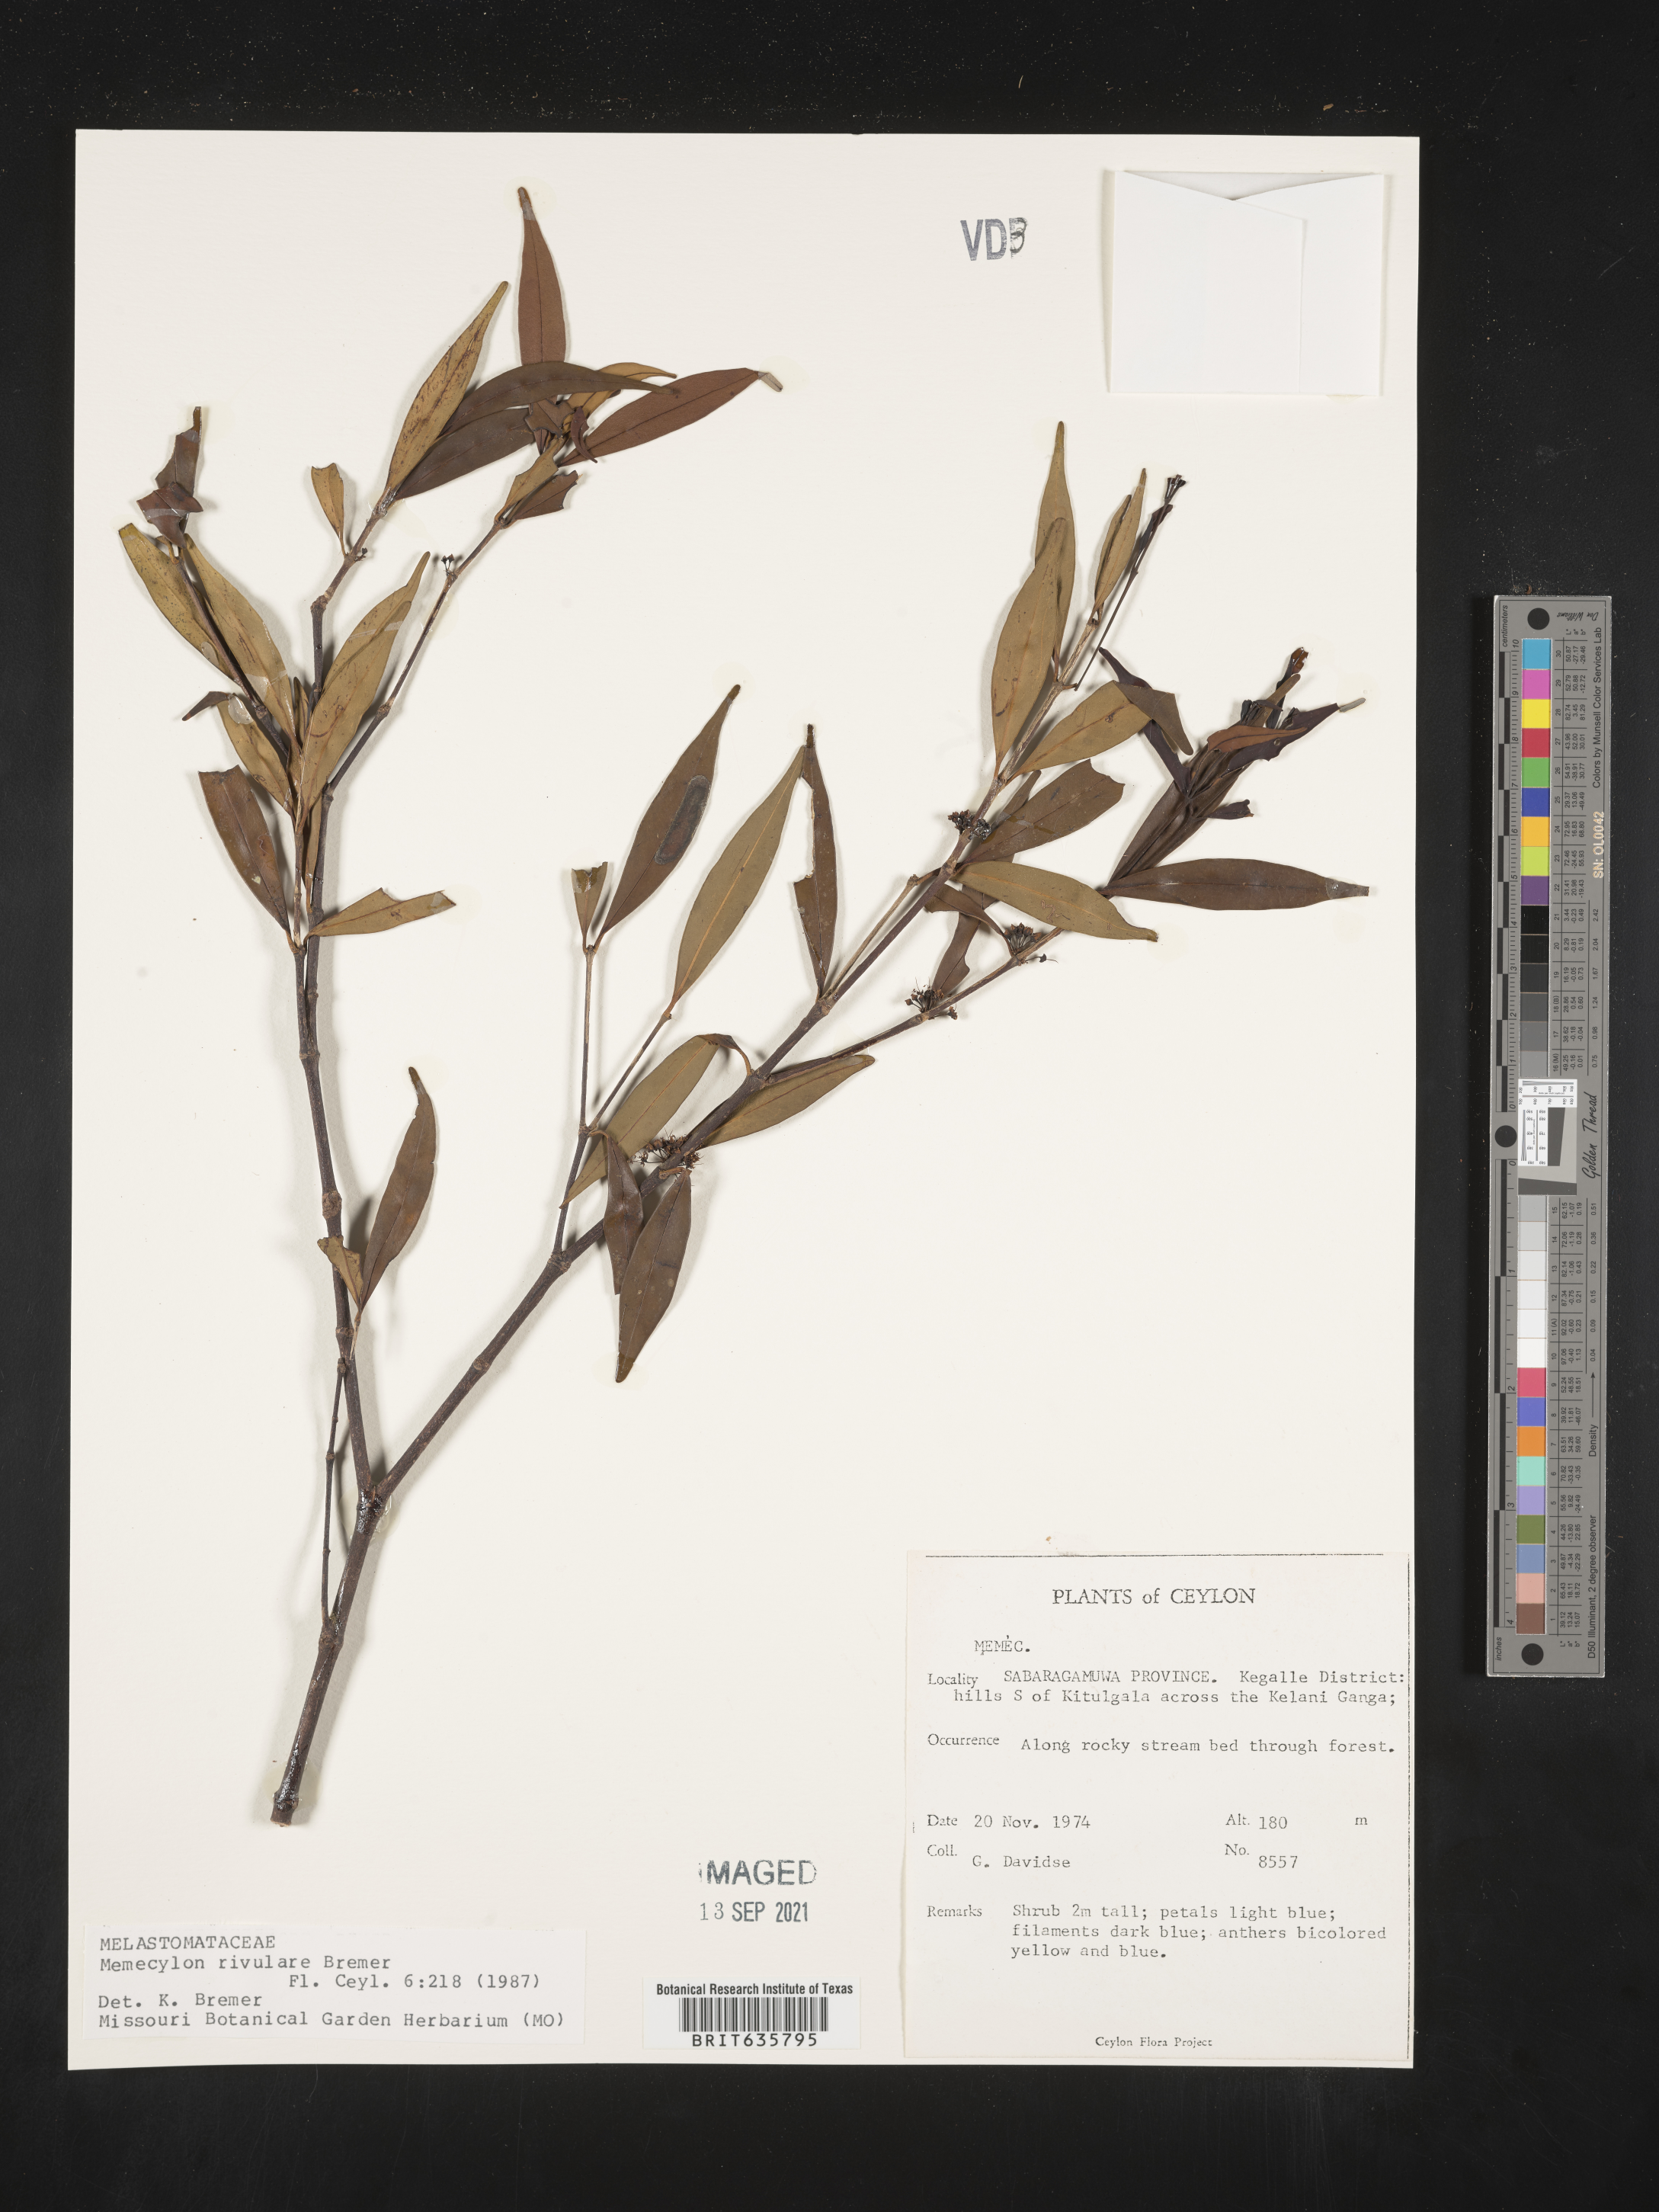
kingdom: Plantae
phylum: Tracheophyta
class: Magnoliopsida
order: Myrtales
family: Melastomataceae
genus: Memecylon
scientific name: Memecylon
